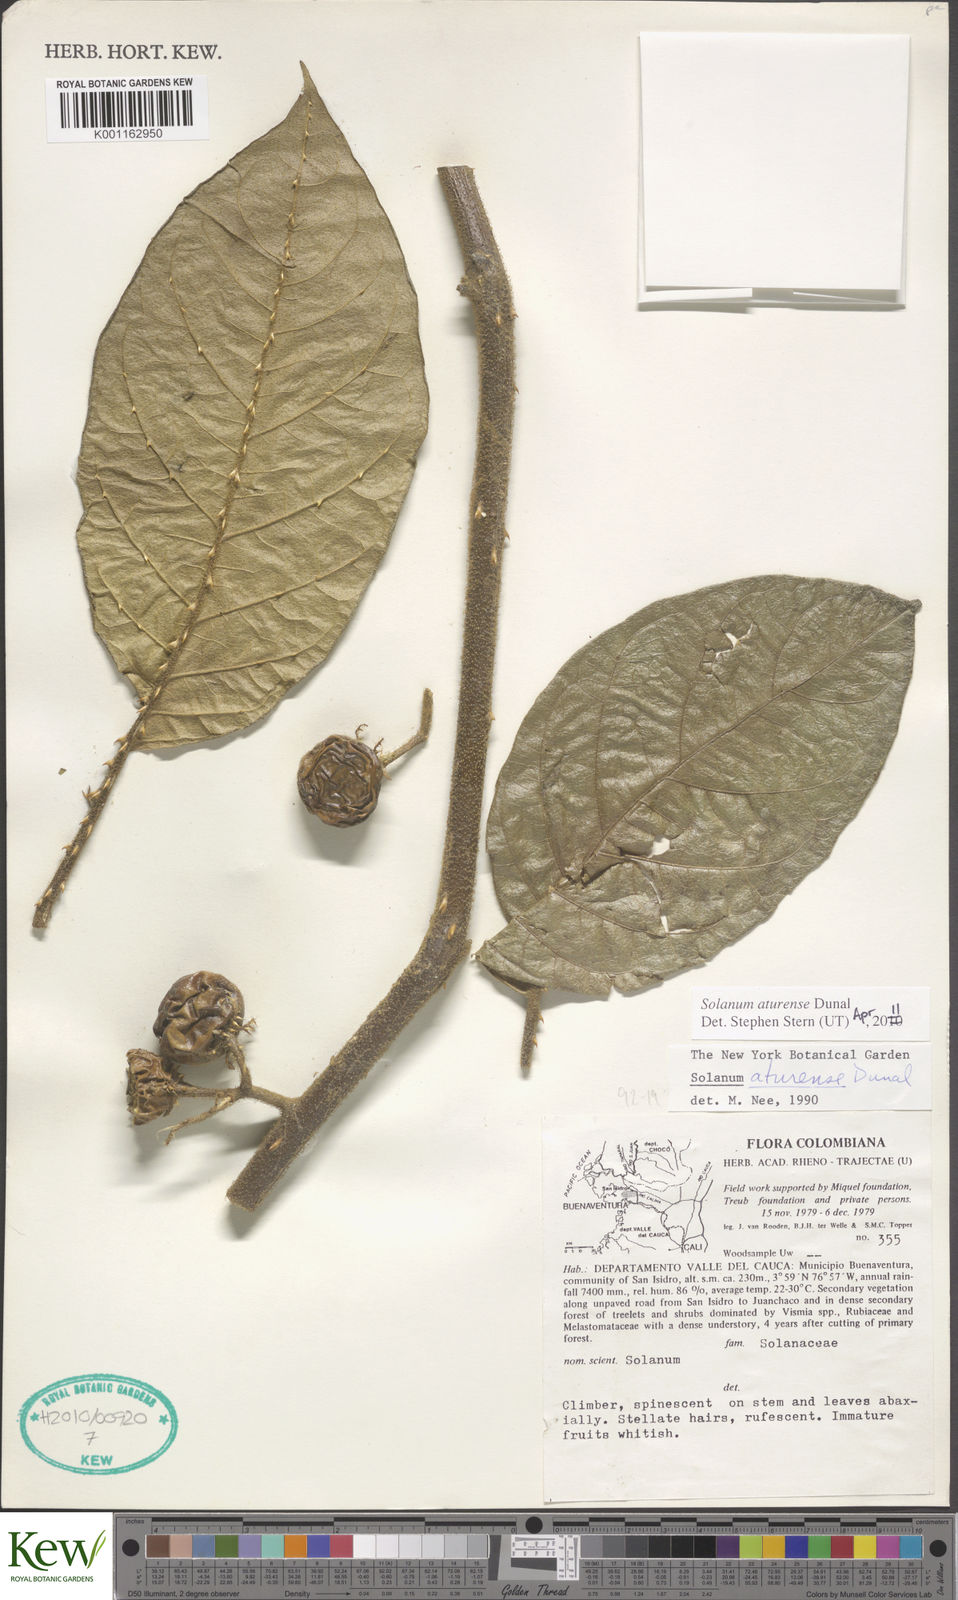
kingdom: Plantae
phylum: Tracheophyta
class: Magnoliopsida
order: Solanales
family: Solanaceae
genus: Solanum
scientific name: Solanum aturense
